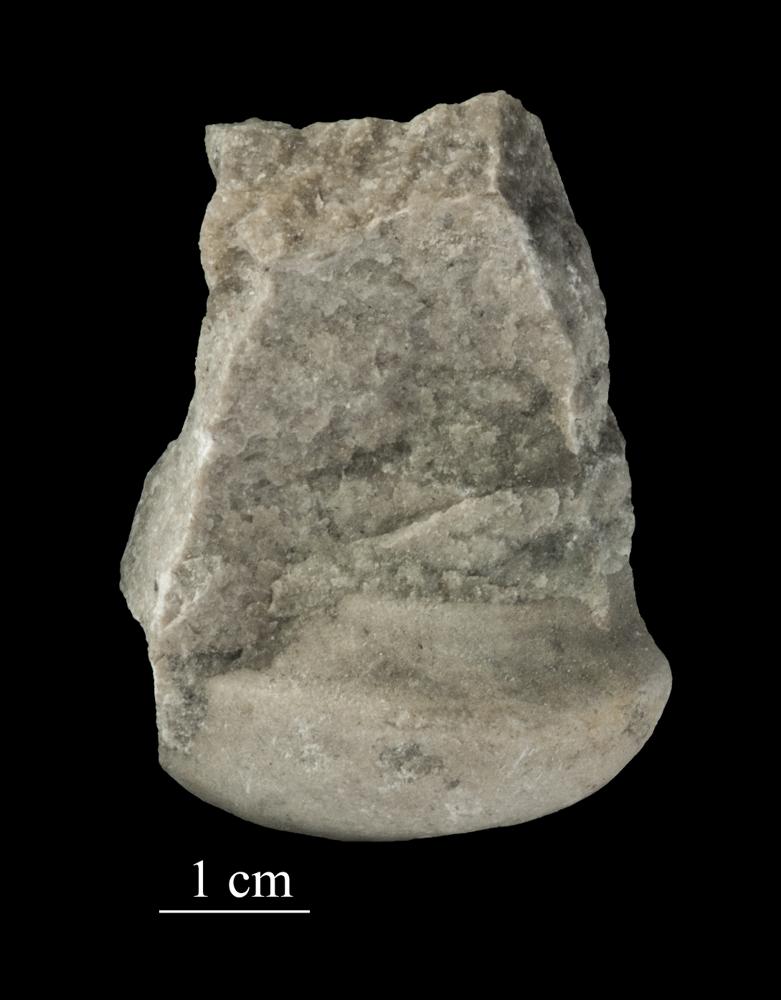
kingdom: Animalia
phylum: Mollusca
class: Gastropoda
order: Neogastropoda
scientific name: Neogastropoda
